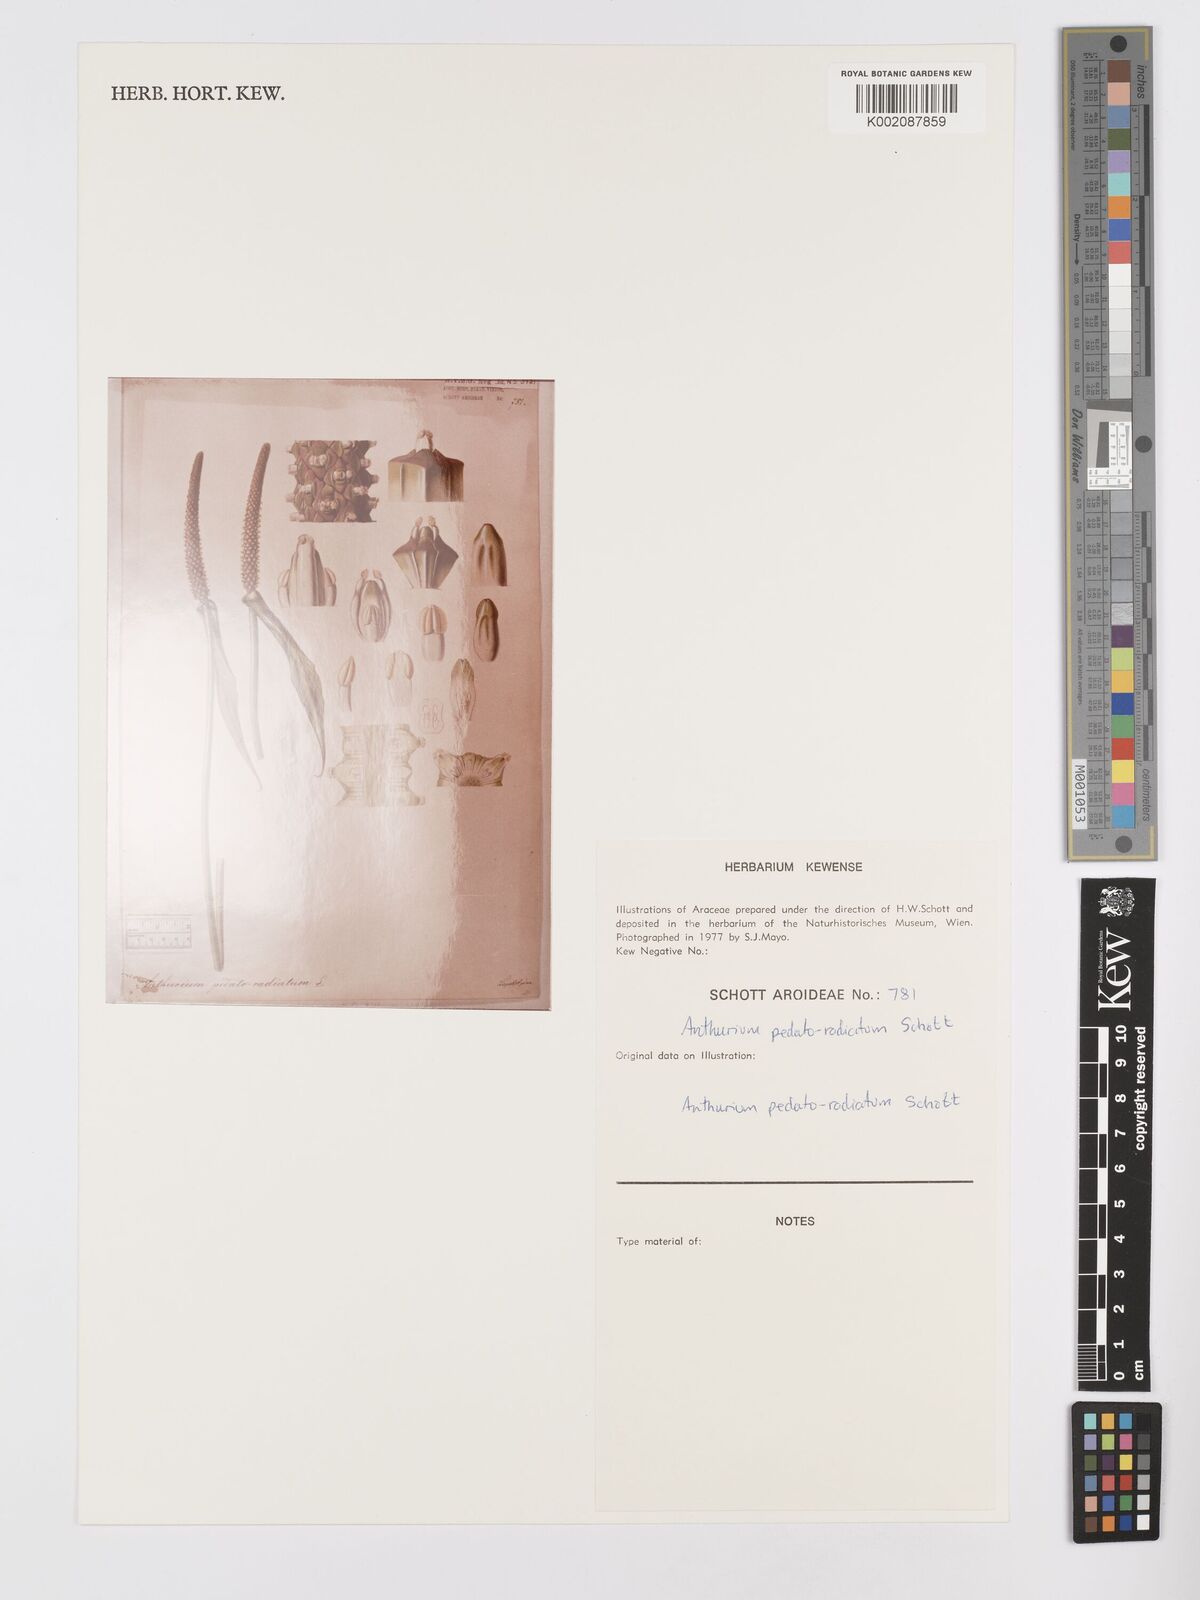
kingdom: Plantae
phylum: Tracheophyta
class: Liliopsida
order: Alismatales
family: Araceae
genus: Anthurium
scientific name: Anthurium pedatoradiatum
